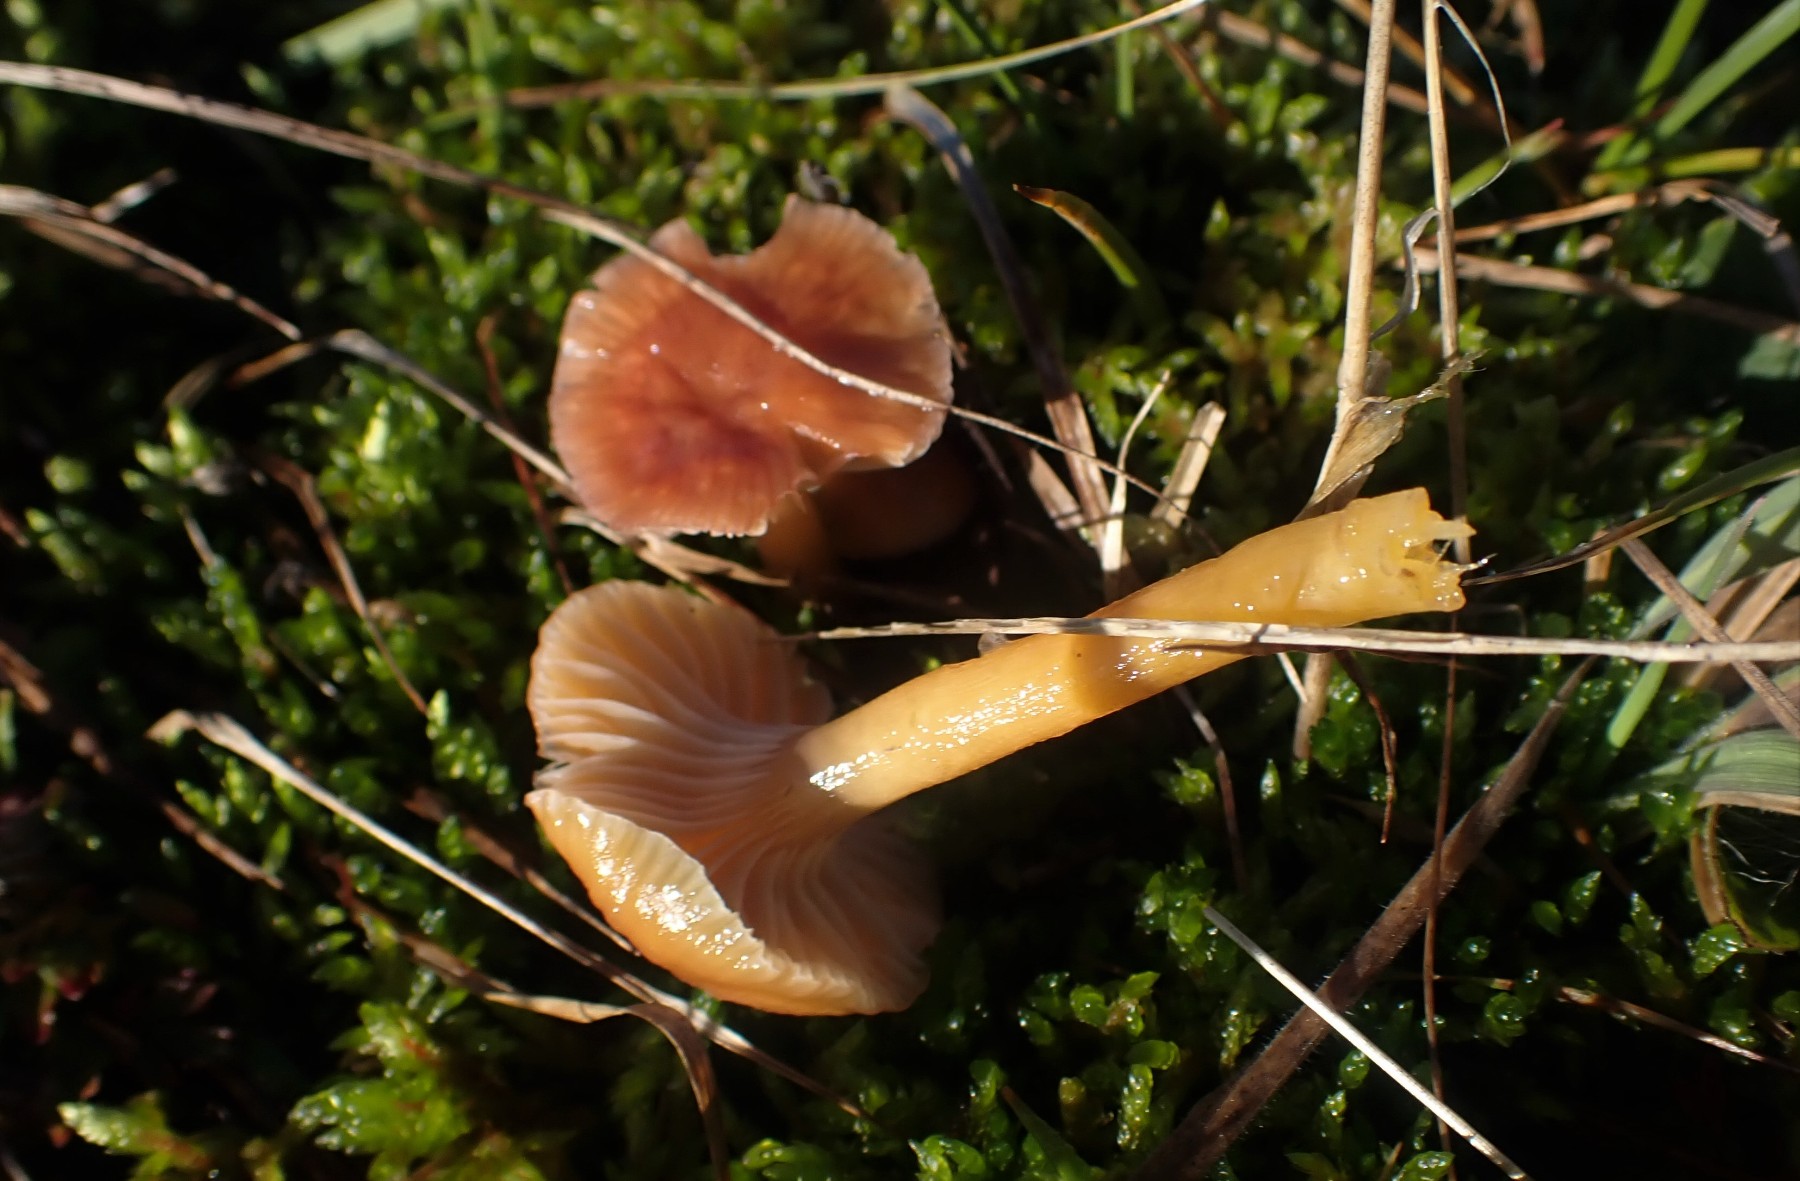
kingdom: Fungi
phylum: Basidiomycota
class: Agaricomycetes
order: Agaricales
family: Hygrophoraceae
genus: Gliophorus
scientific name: Gliophorus laetus
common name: brusk-vokshat
